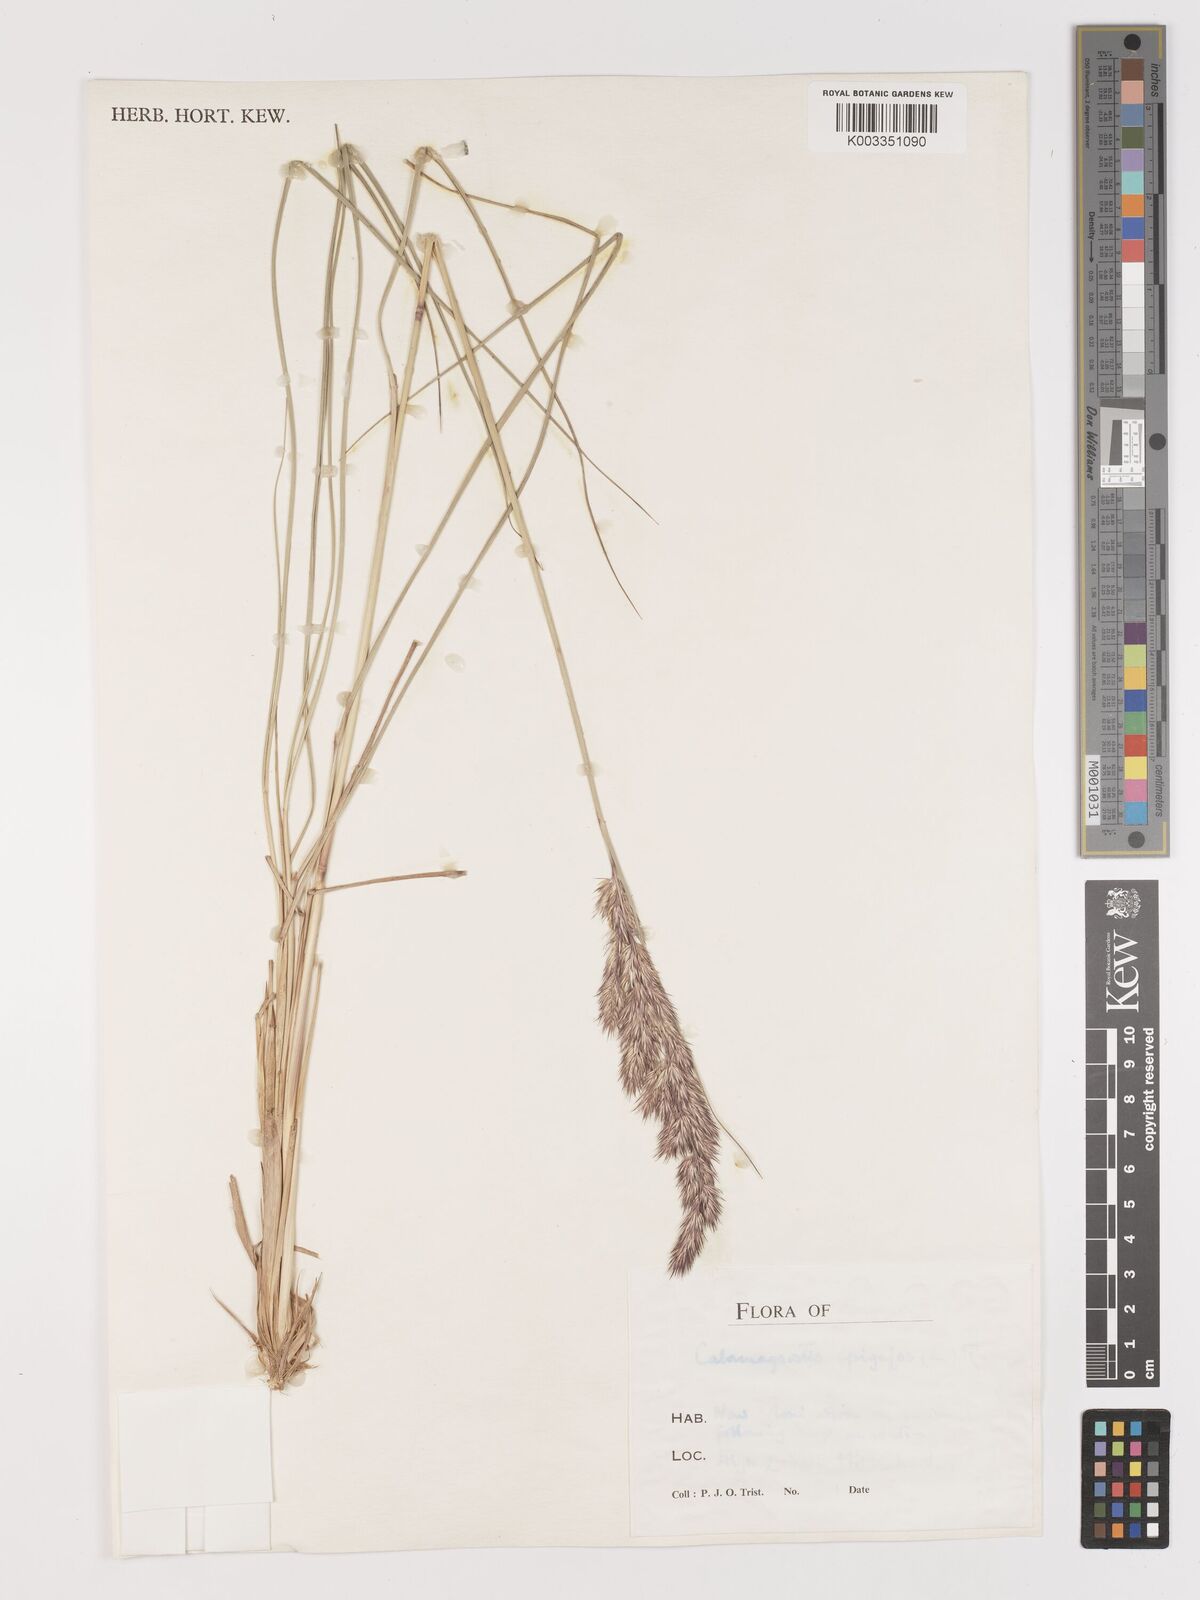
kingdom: Plantae
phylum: Tracheophyta
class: Liliopsida
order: Poales
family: Poaceae
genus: Calamagrostis
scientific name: Calamagrostis
